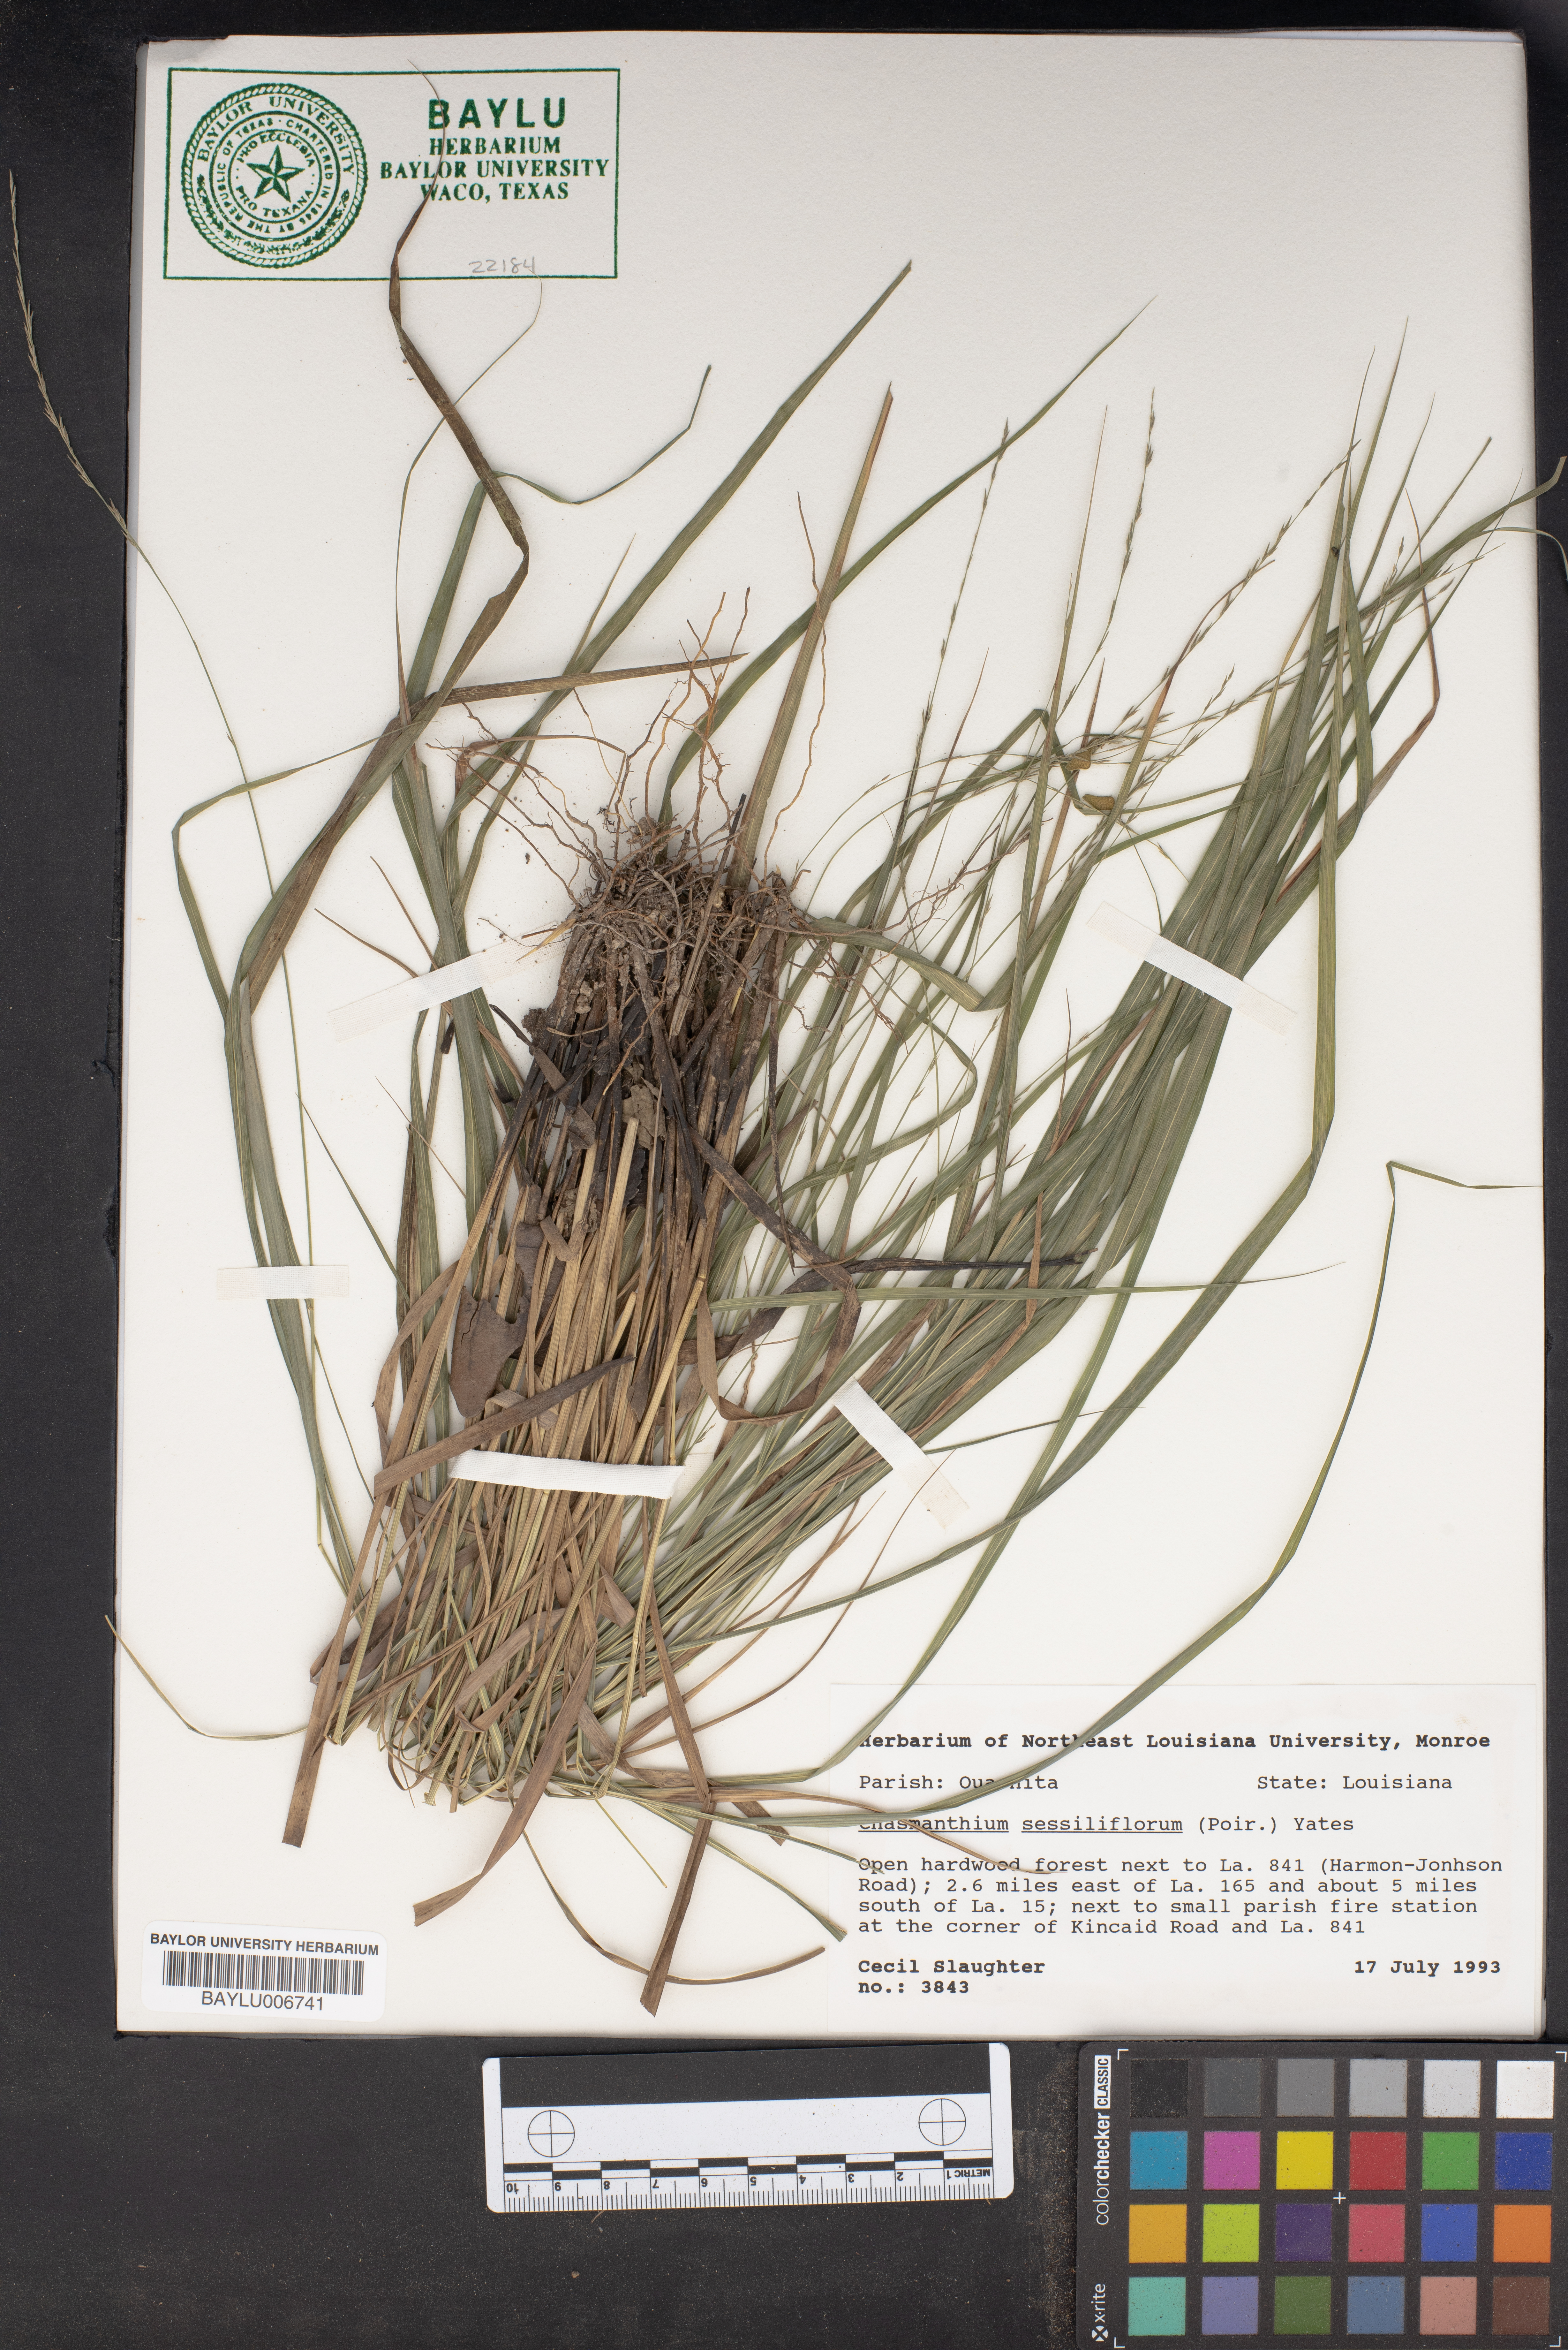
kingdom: Plantae
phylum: Tracheophyta
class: Liliopsida
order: Poales
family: Poaceae
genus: Chasmanthium
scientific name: Chasmanthium laxum
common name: Slender chasmanthium
